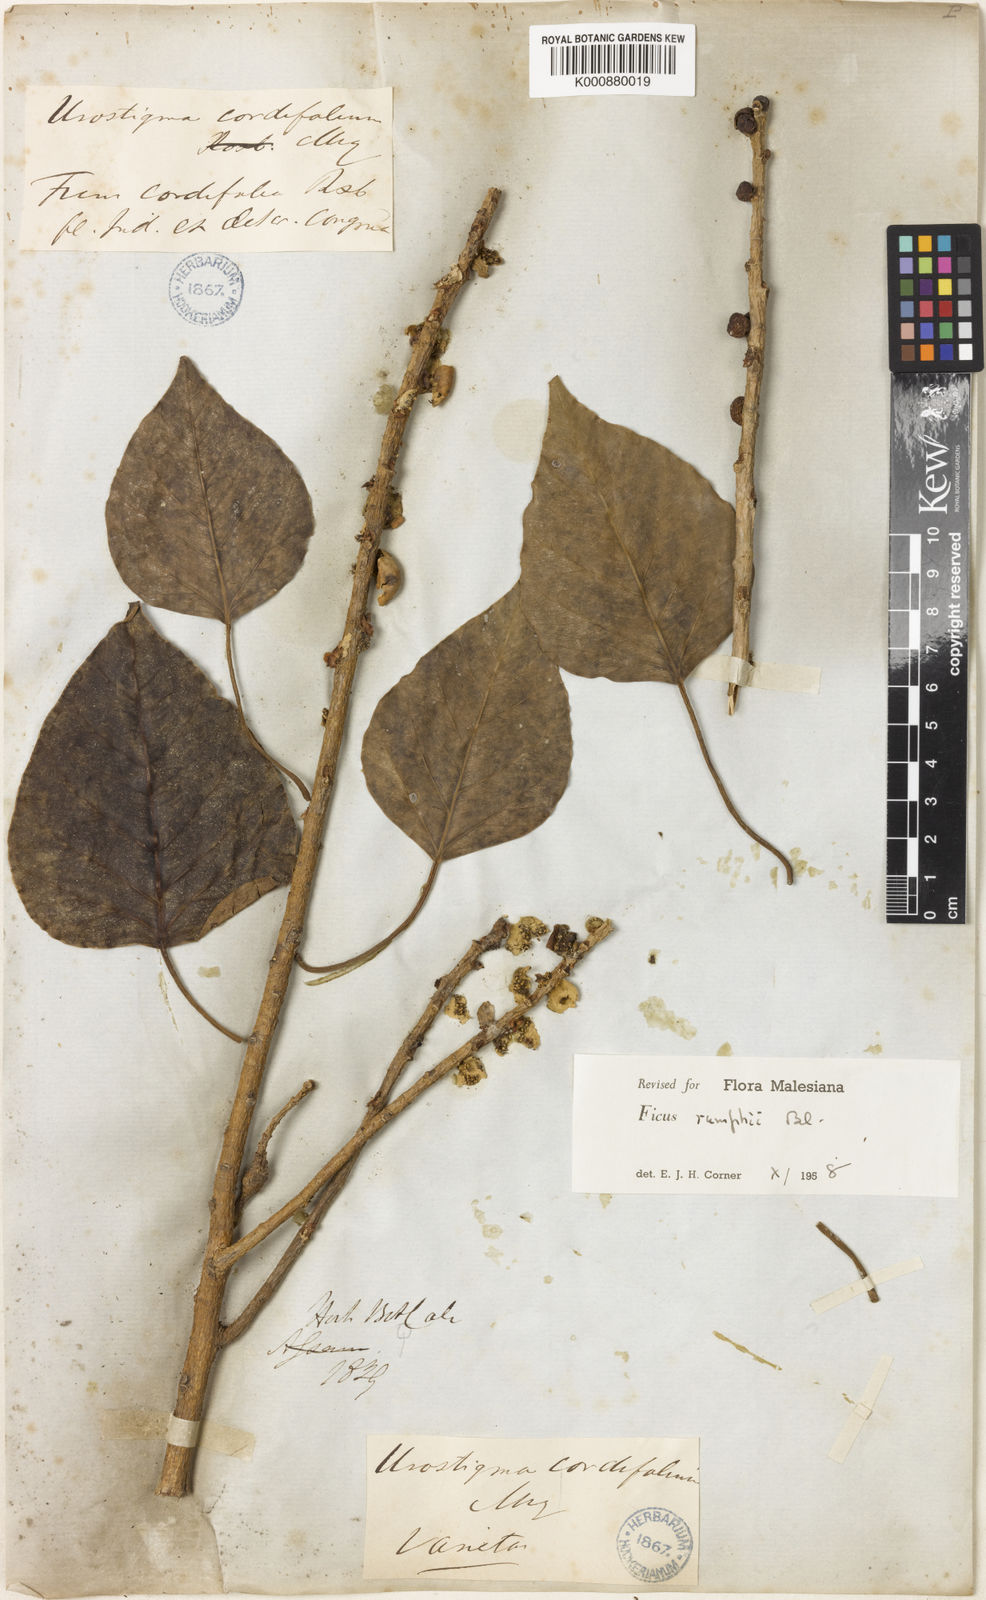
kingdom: Plantae
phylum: Tracheophyta
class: Magnoliopsida
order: Rosales
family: Moraceae
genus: Ficus
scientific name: Ficus rumphii
